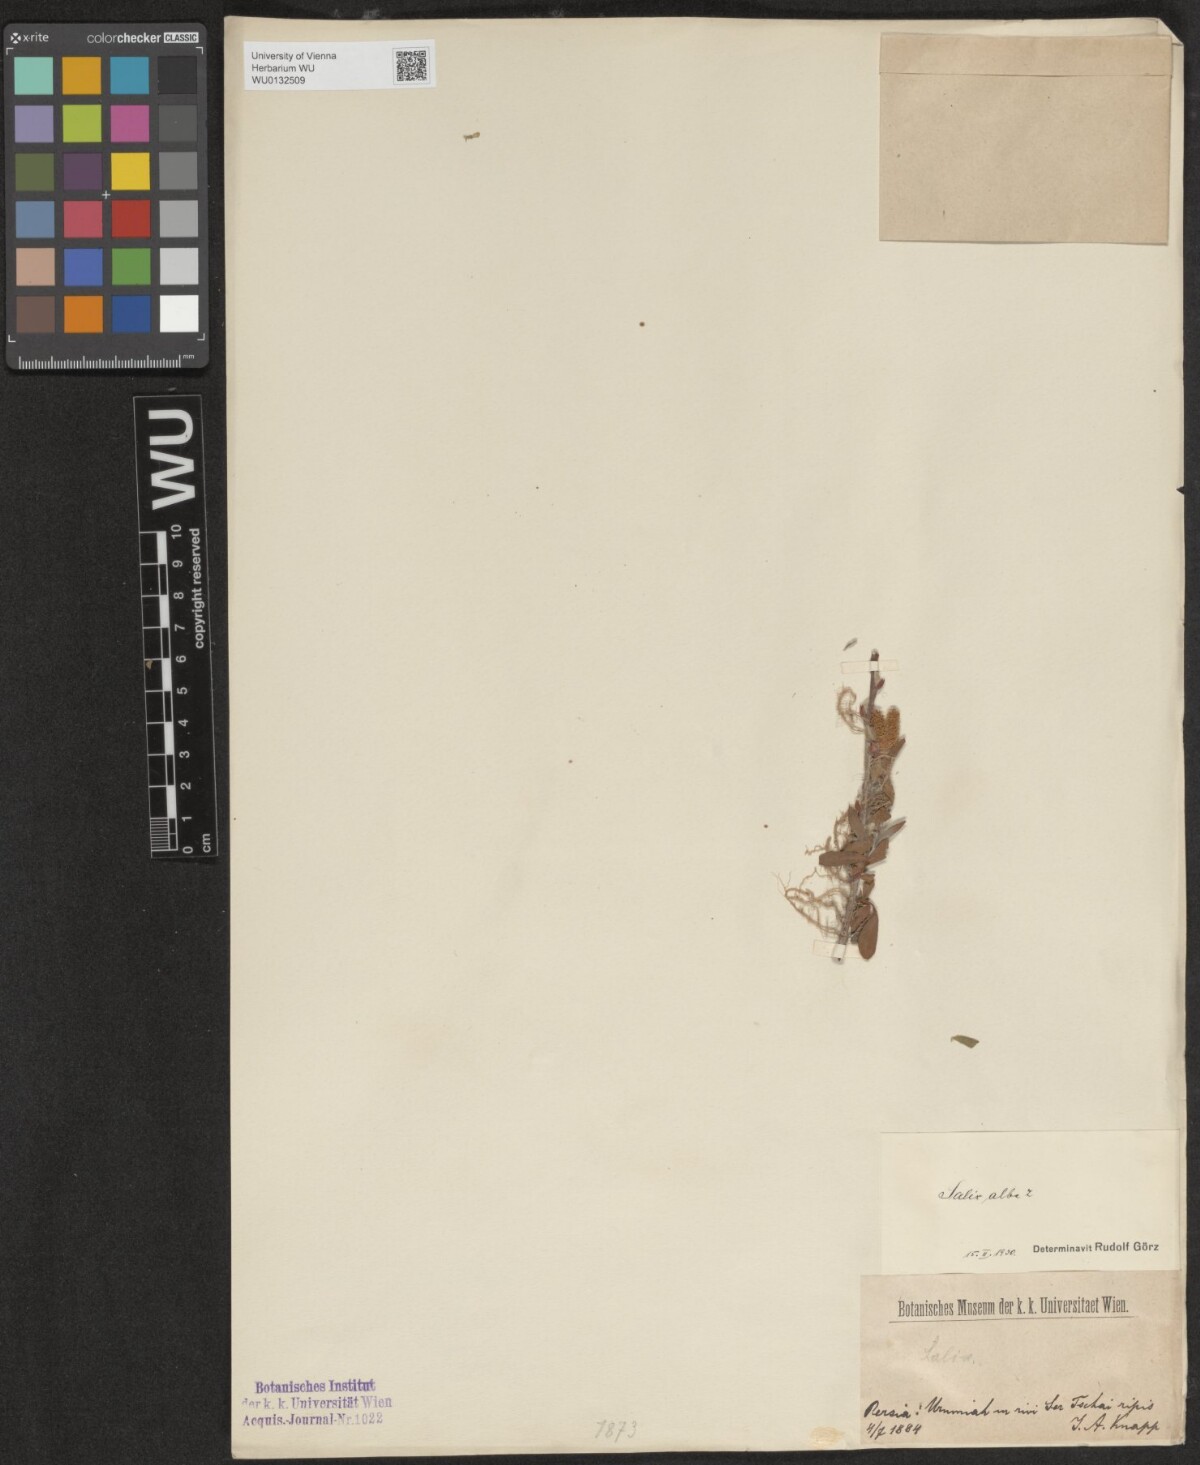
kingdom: Plantae
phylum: Tracheophyta
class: Magnoliopsida
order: Malpighiales
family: Salicaceae
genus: Salix
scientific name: Salix alba
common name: White willow
